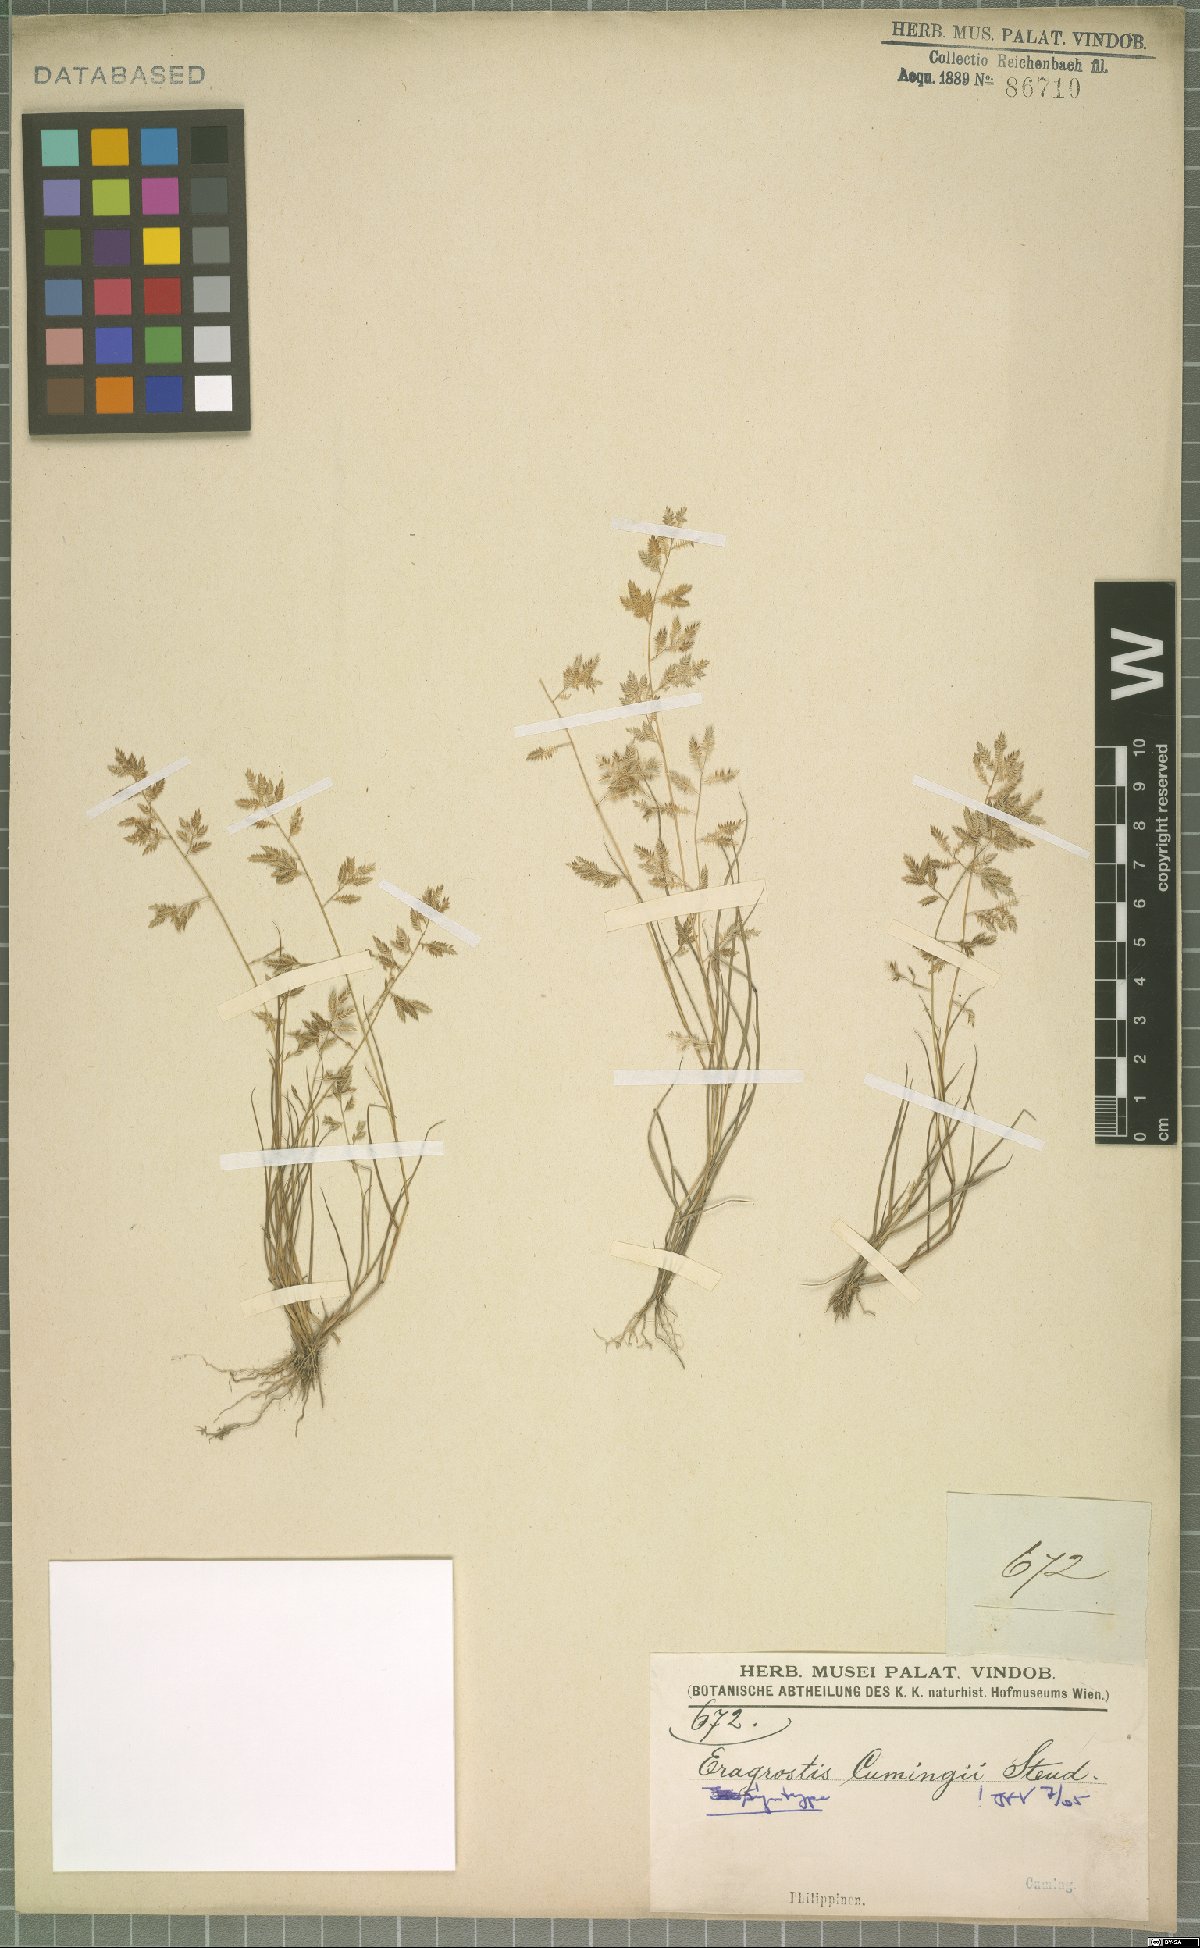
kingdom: Plantae
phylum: Tracheophyta
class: Liliopsida
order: Poales
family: Poaceae
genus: Eragrostis
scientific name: Eragrostis cumingii
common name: Cuming's lovegrass
